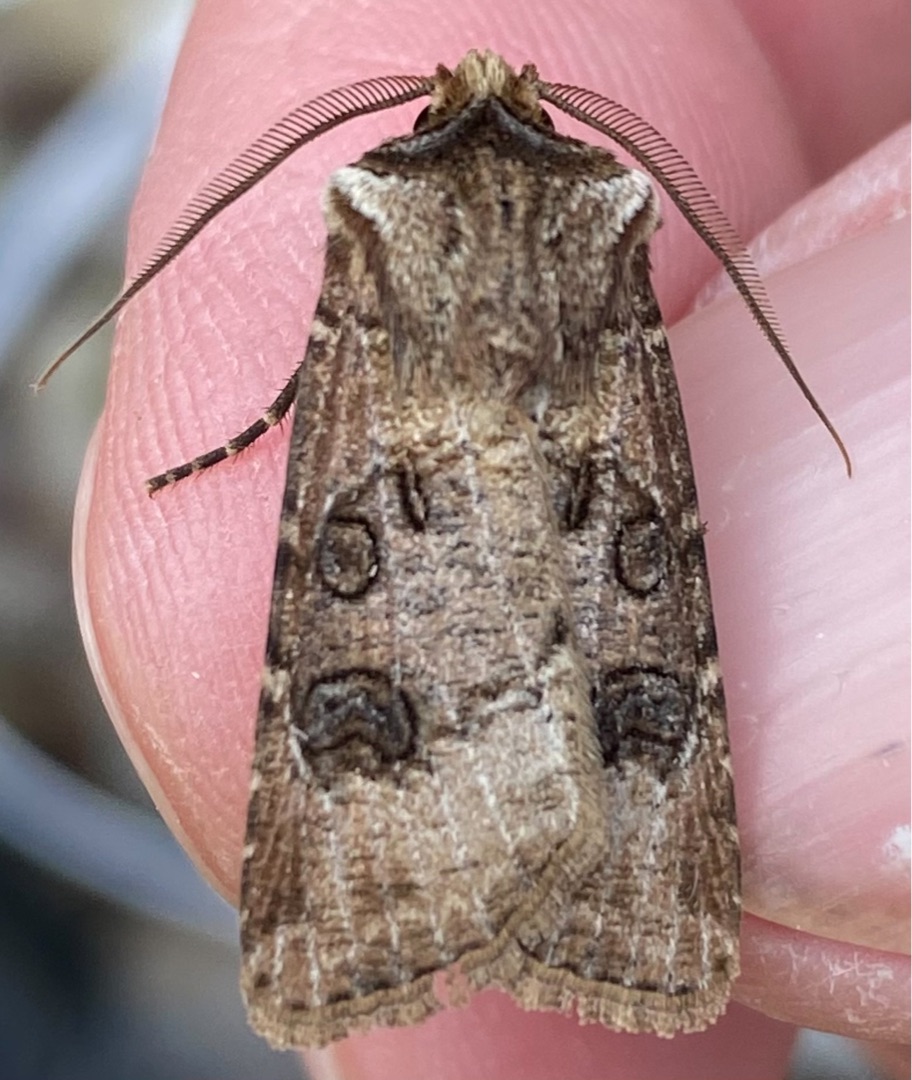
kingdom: Animalia
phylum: Arthropoda
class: Insecta
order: Lepidoptera
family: Noctuidae
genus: Agrotis
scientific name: Agrotis clavis
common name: Nøgle-landmand
